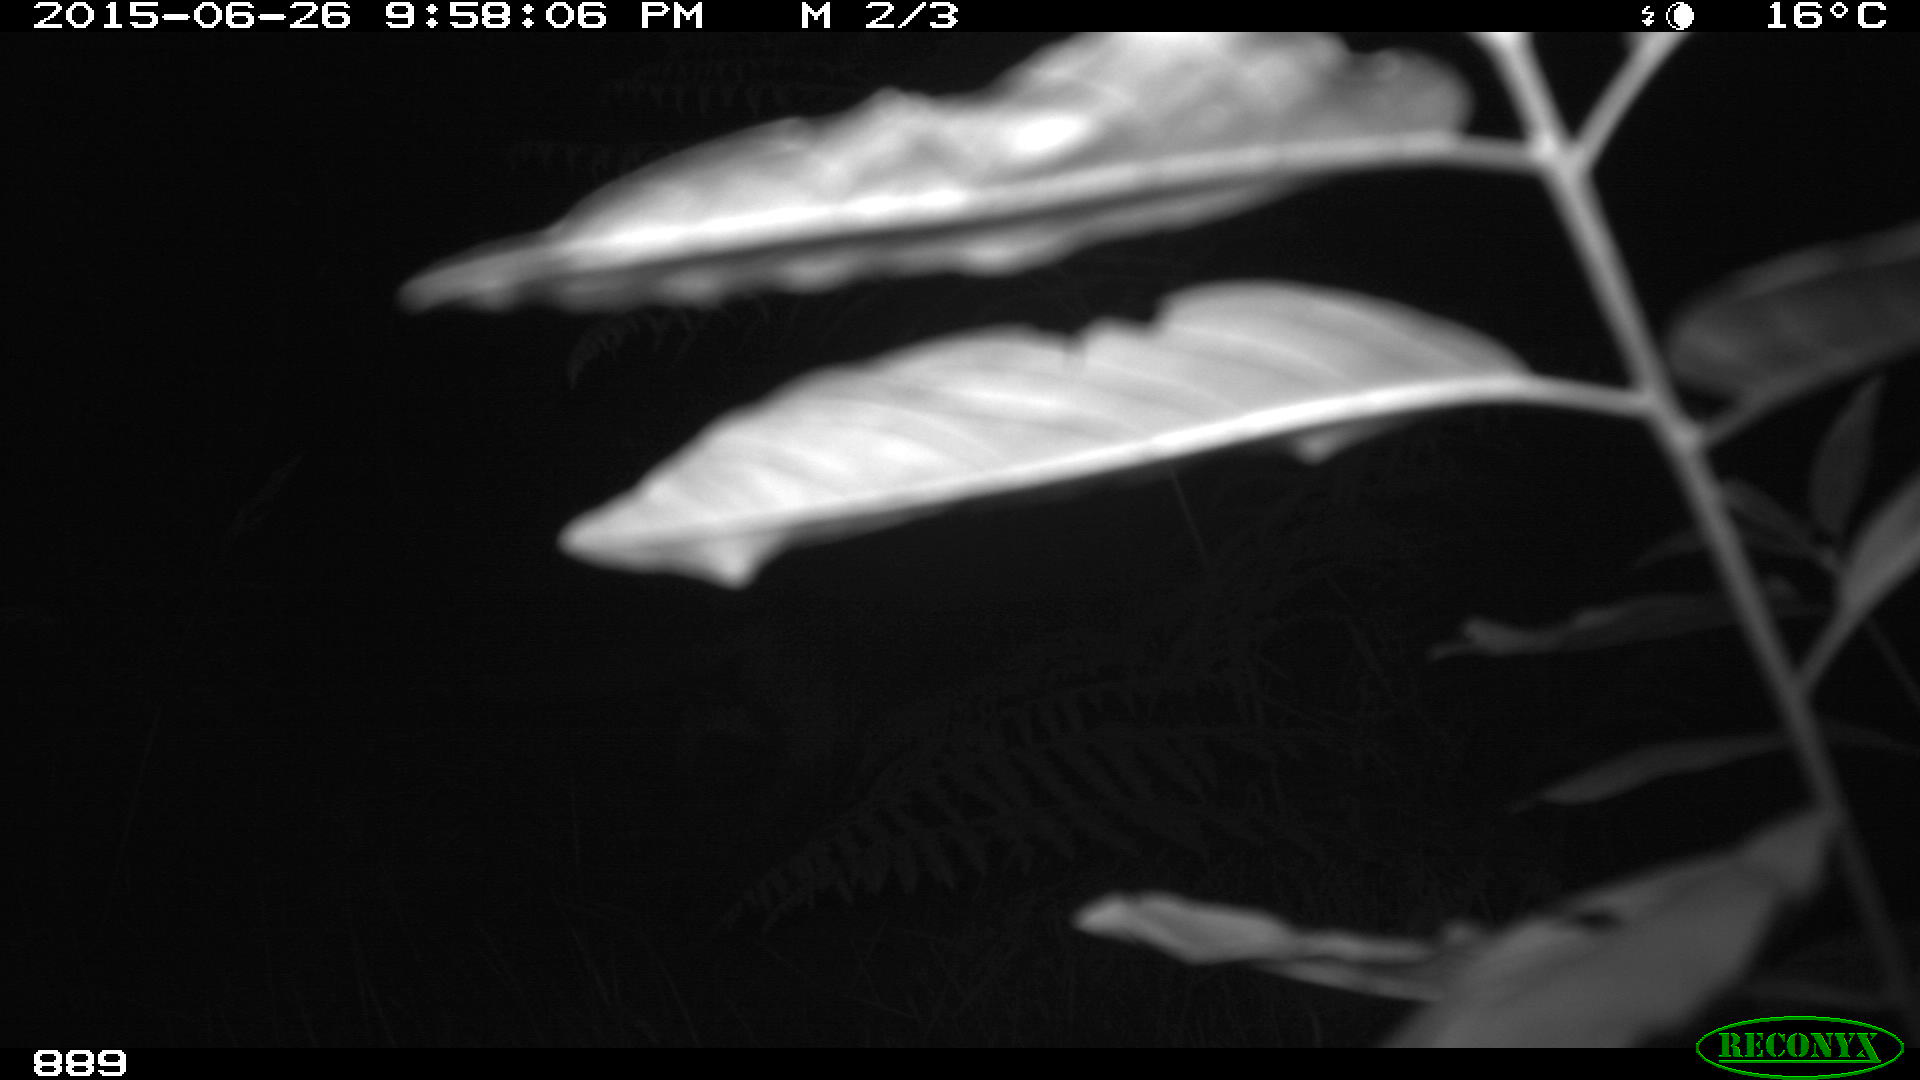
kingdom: Animalia
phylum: Chordata
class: Mammalia
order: Artiodactyla
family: Suidae
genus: Sus
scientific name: Sus scrofa
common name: Wild boar
